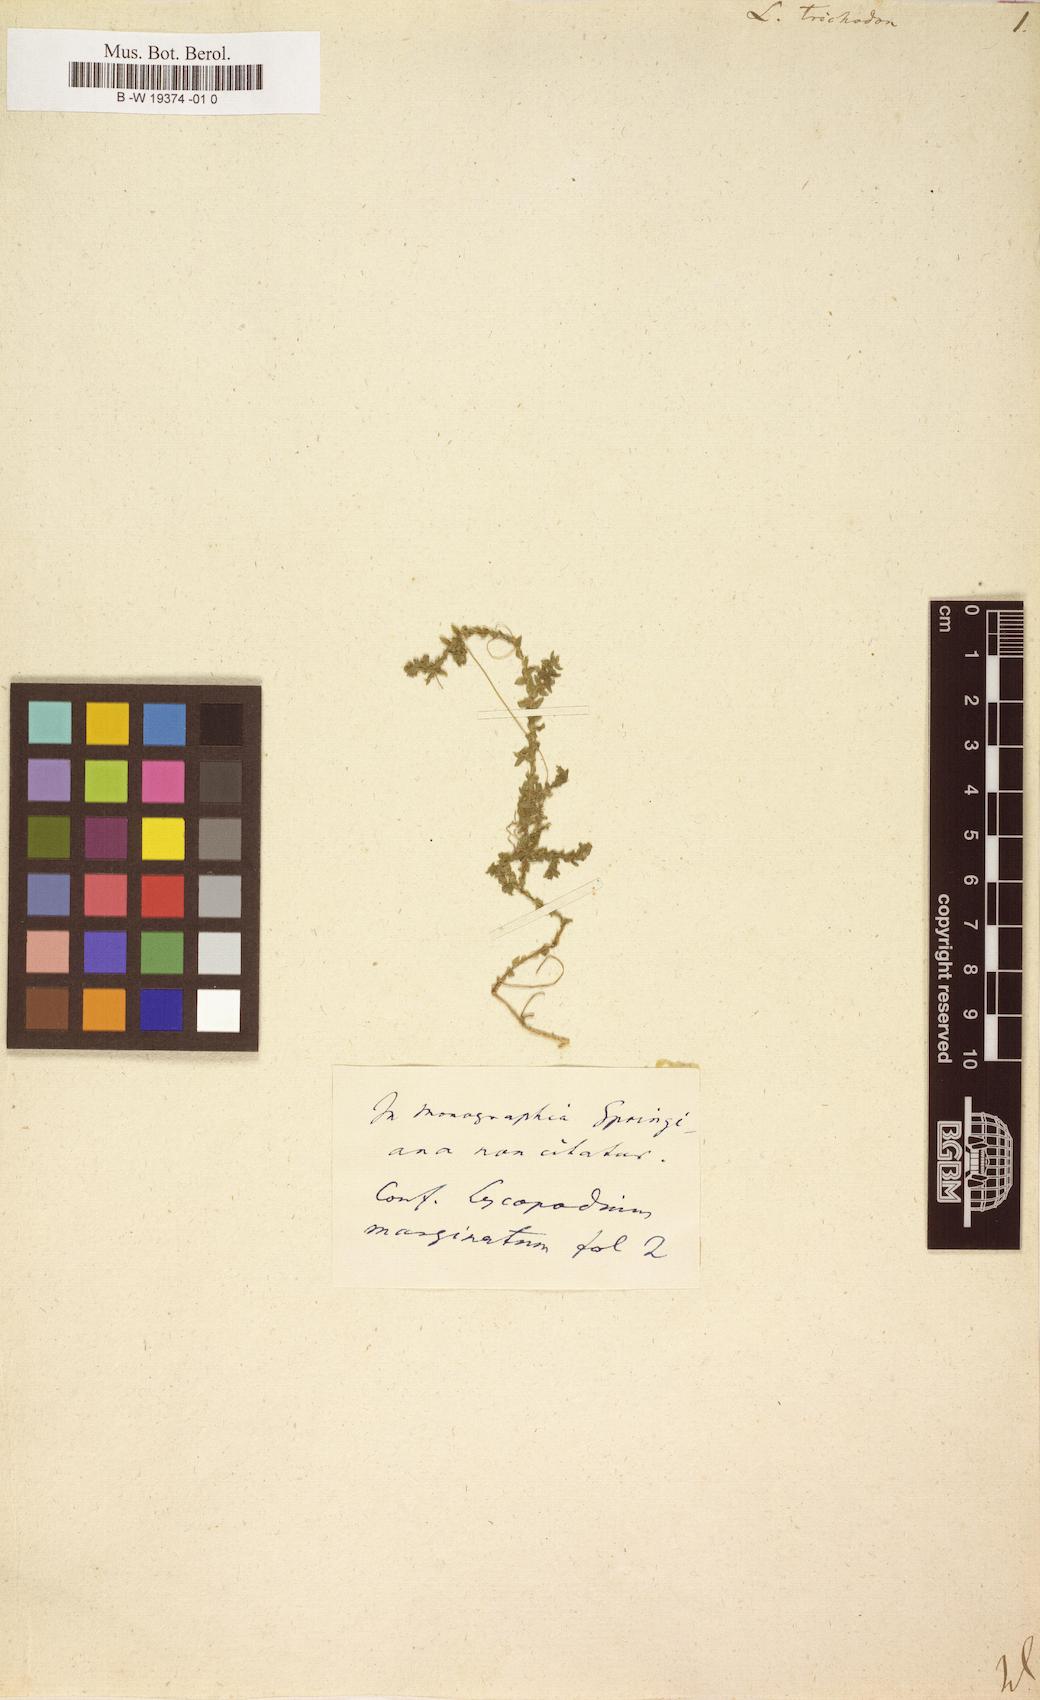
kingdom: Plantae
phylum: Tracheophyta
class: Lycopodiopsida
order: Lycopodiales
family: Lycopodiaceae
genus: Lycopodium
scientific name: Lycopodium
